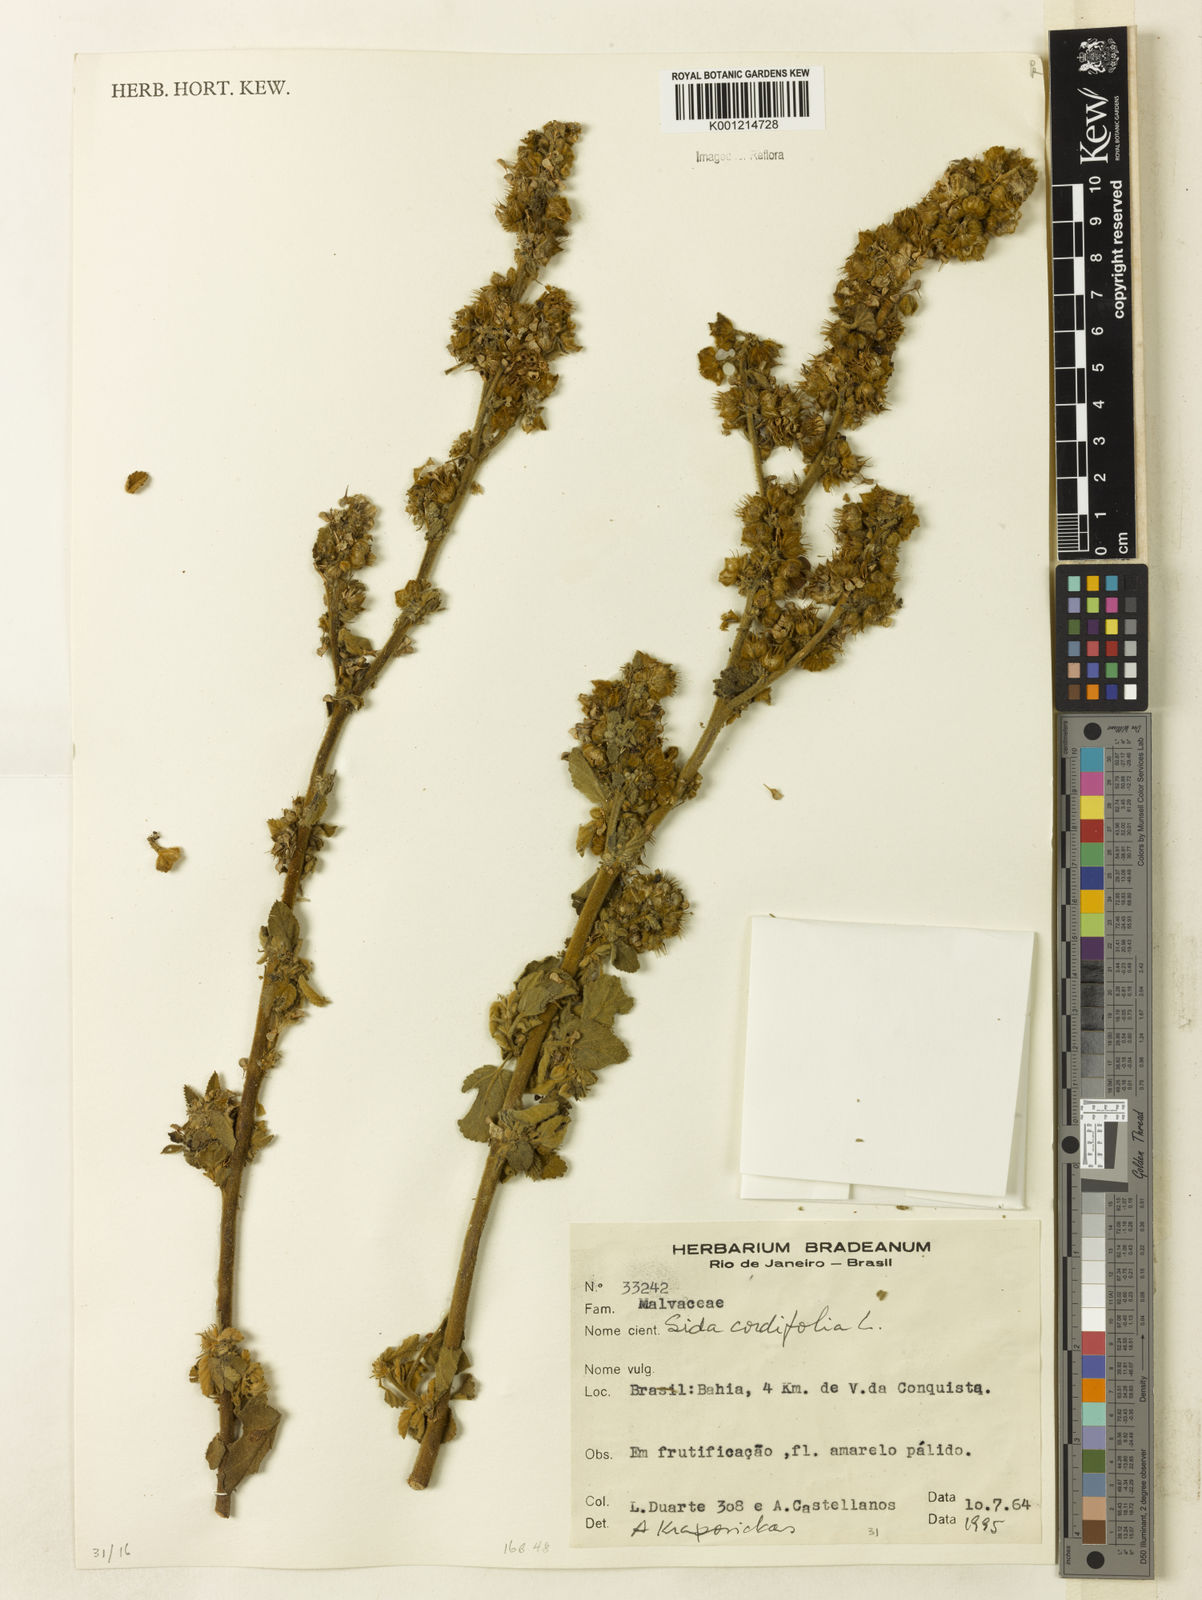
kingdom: Plantae
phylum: Tracheophyta
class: Magnoliopsida
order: Malvales
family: Malvaceae
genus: Sida
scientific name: Sida cordifolia
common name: Ilima
